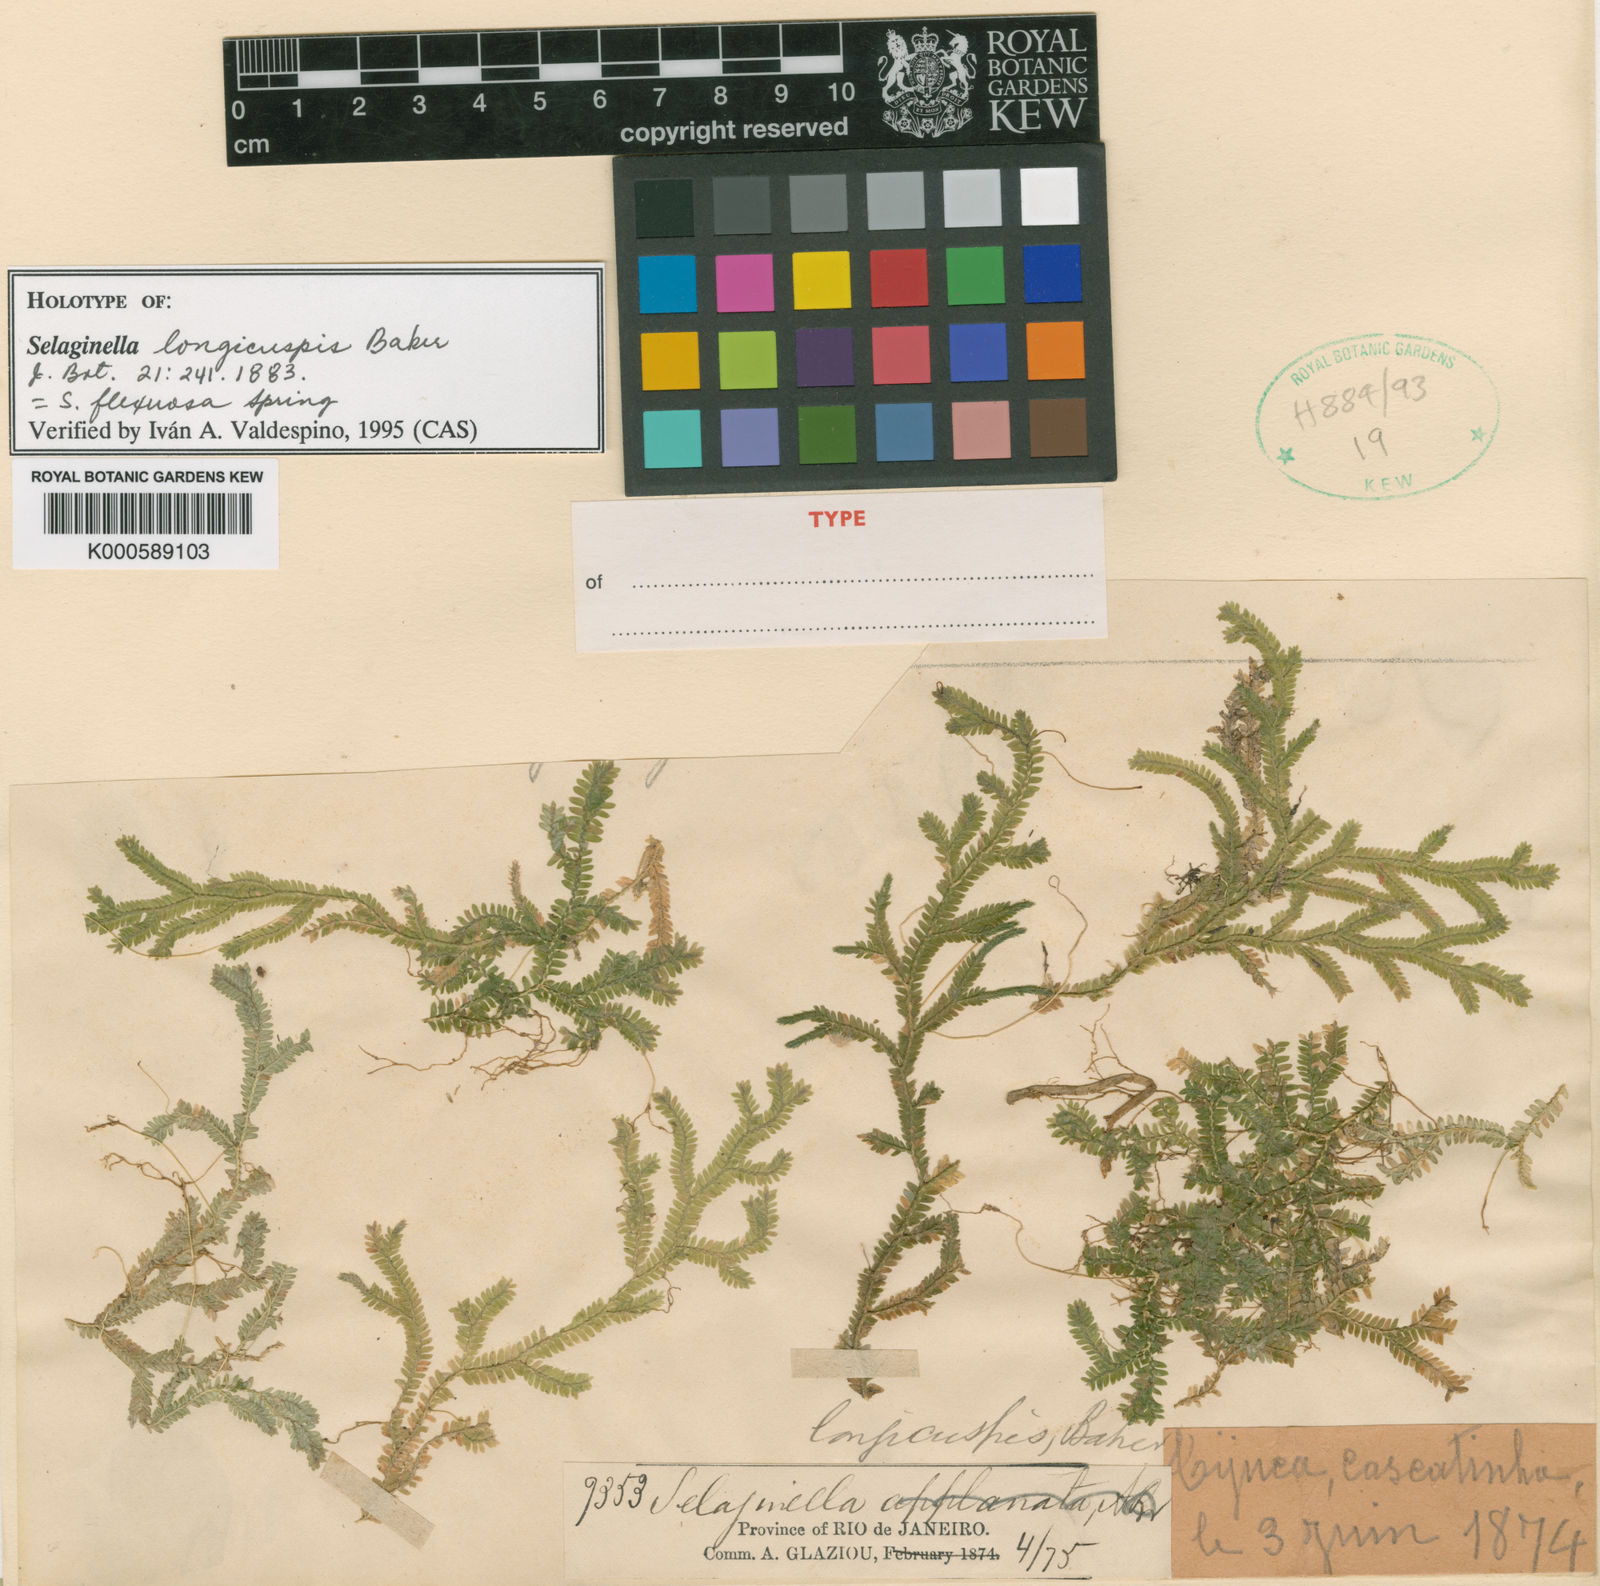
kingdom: Plantae
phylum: Tracheophyta
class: Lycopodiopsida
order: Selaginellales
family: Selaginellaceae
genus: Selaginella
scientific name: Selaginella flexuosa
